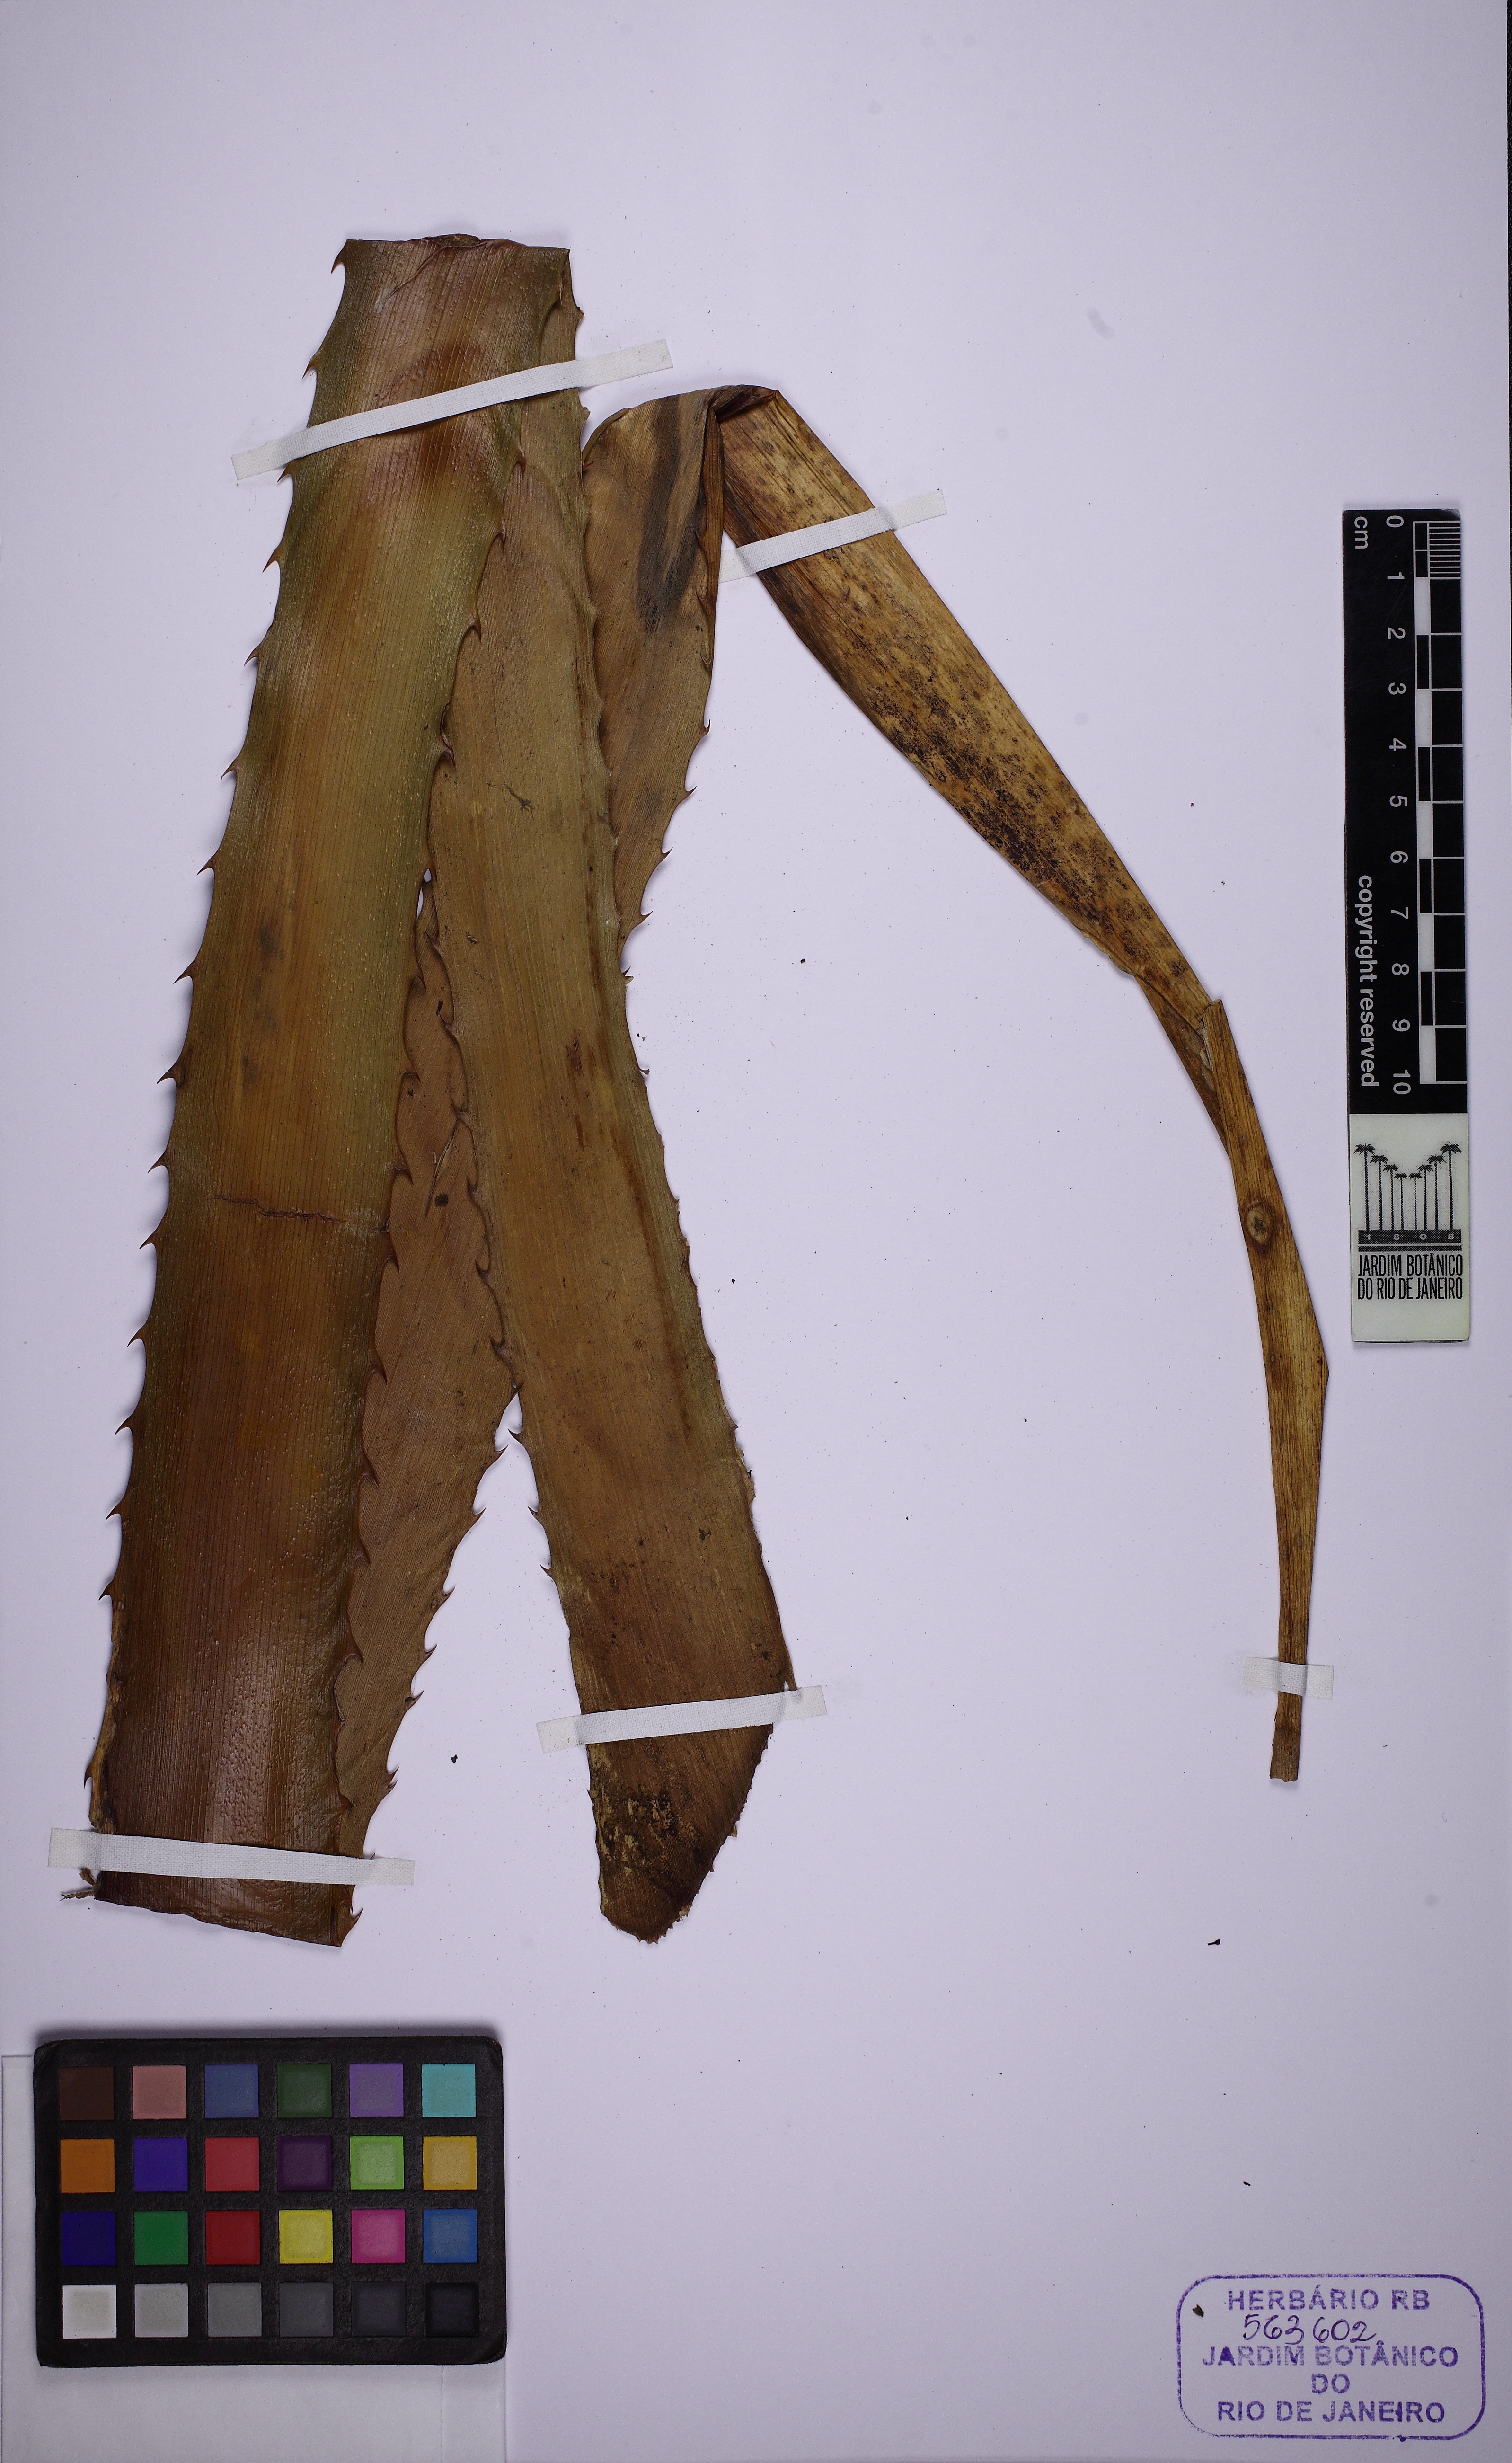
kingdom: Plantae
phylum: Tracheophyta
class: Liliopsida
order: Poales
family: Bromeliaceae
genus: Ananas
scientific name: Ananas comosus
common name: Pineapple
